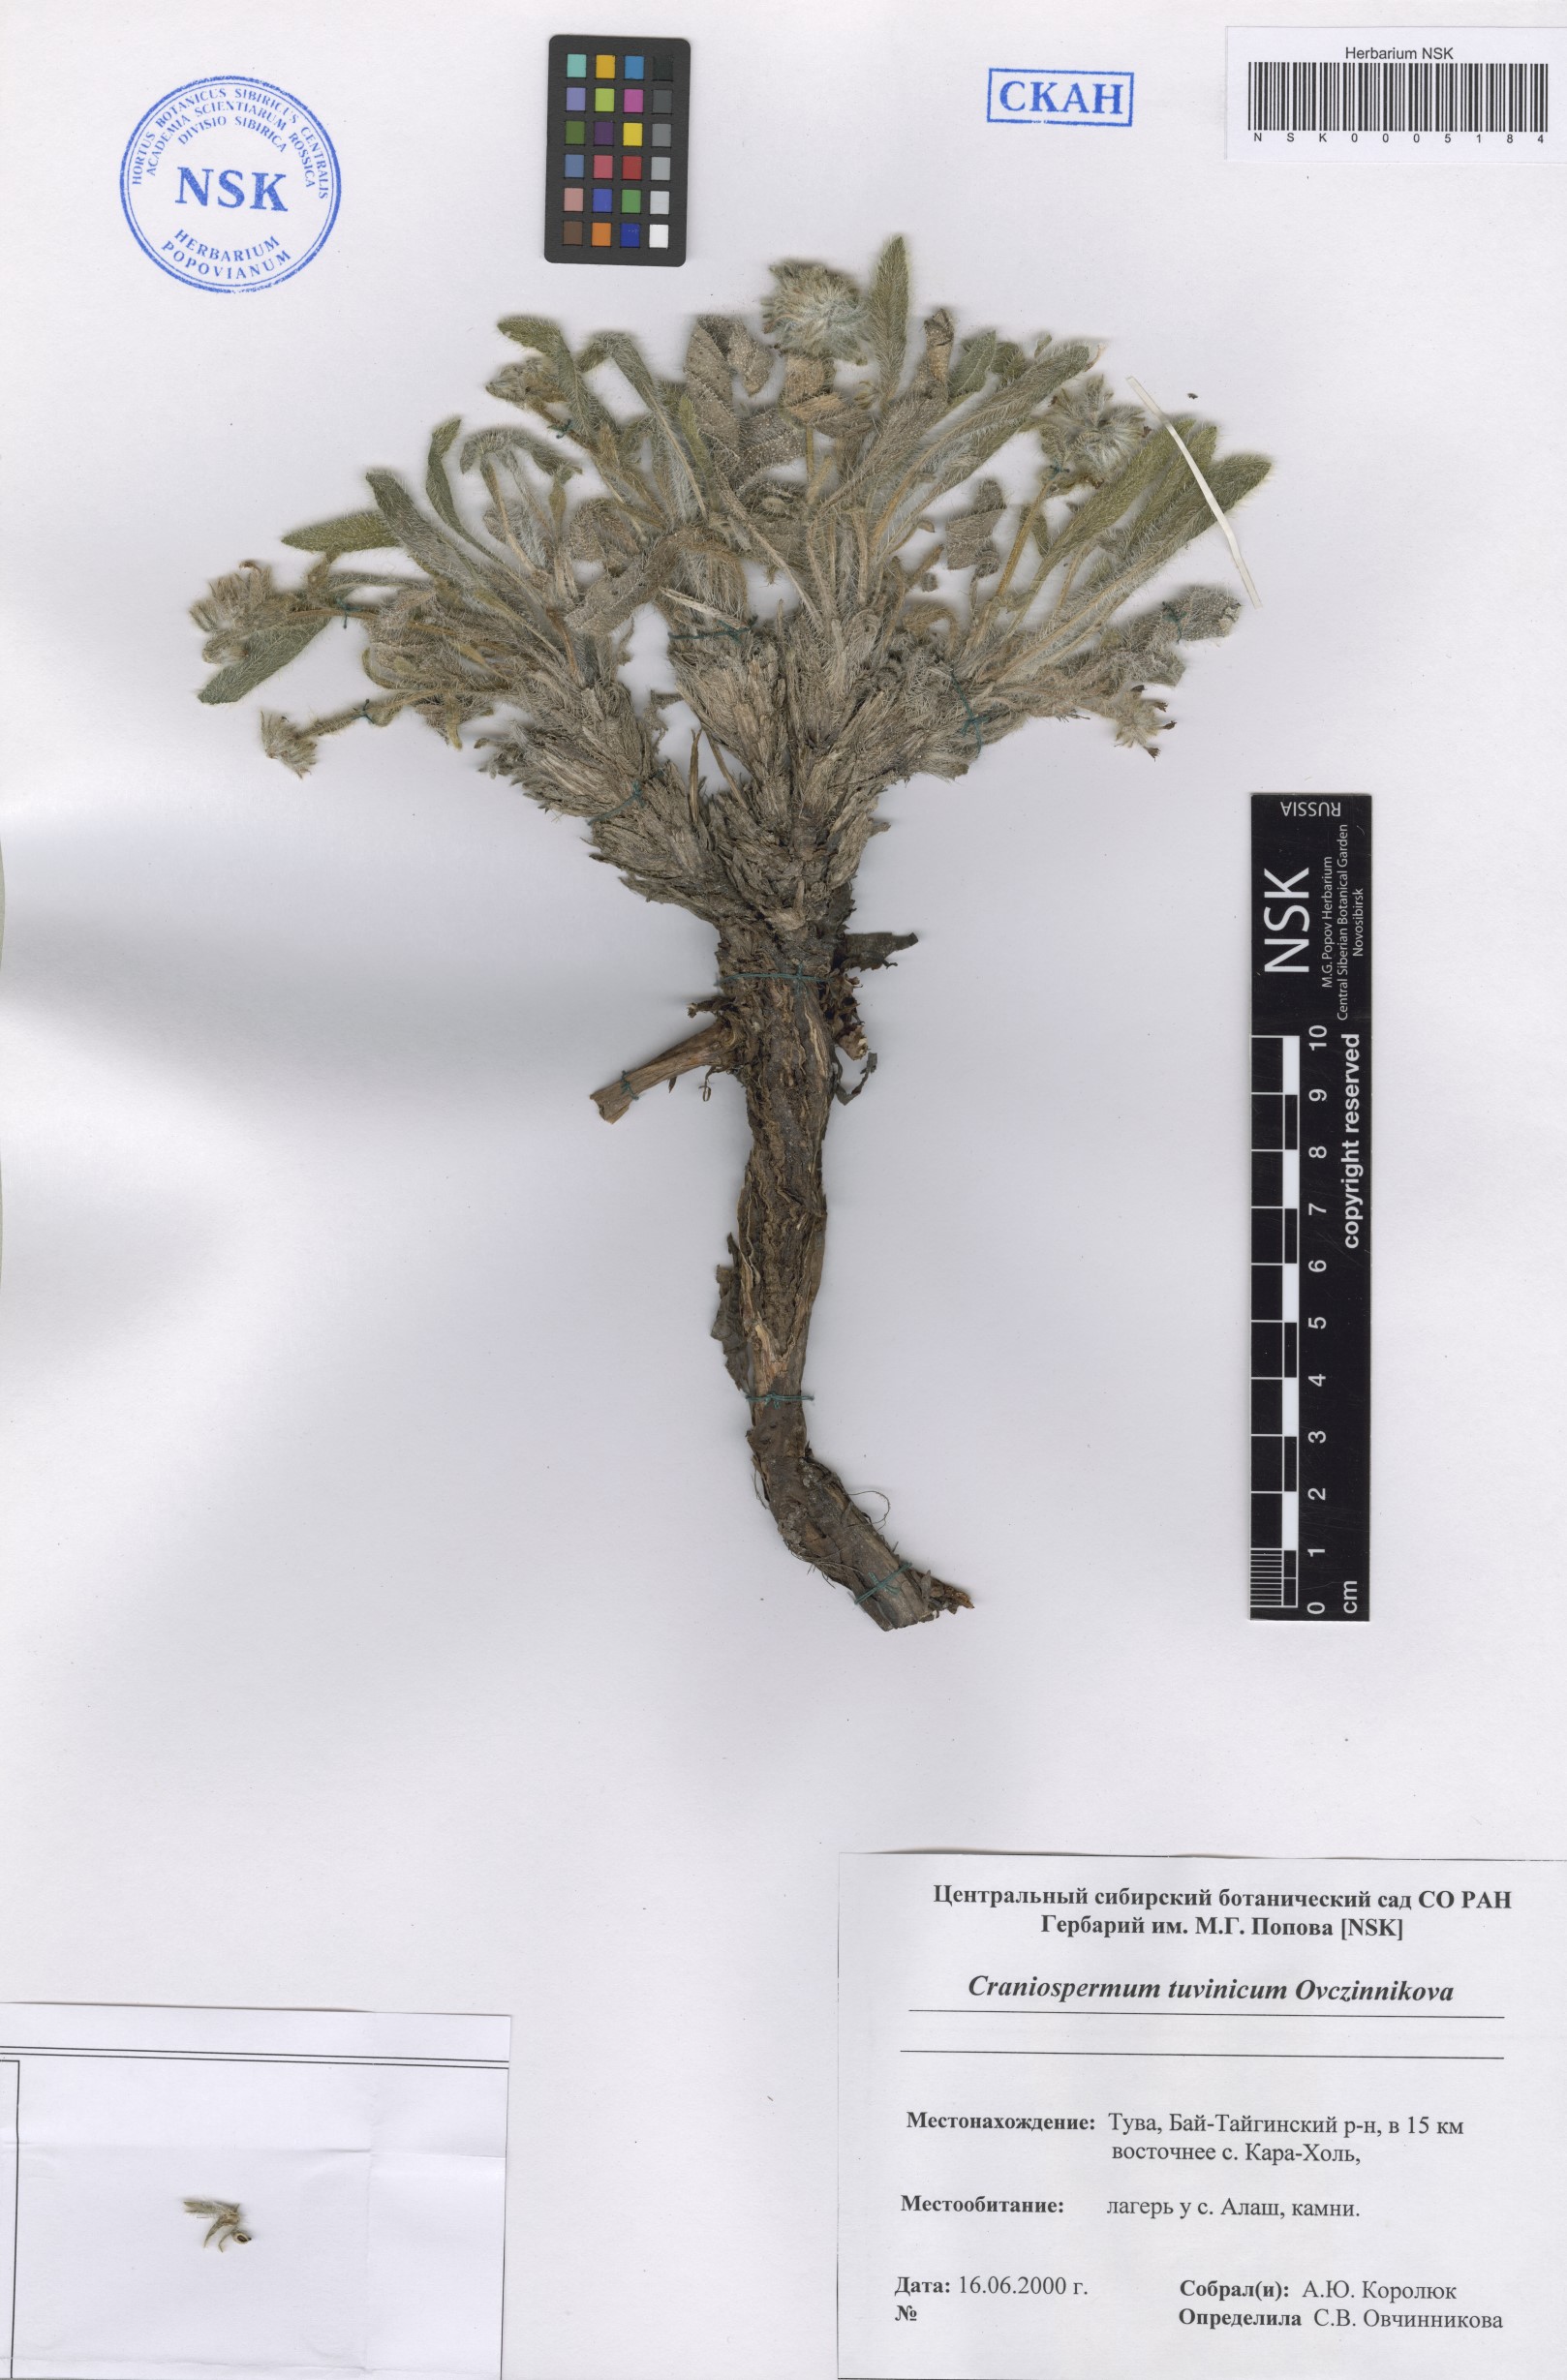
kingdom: Plantae
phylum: Tracheophyta
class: Magnoliopsida
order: Boraginales
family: Boraginaceae
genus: Craniospermum
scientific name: Craniospermum tuvinicum
